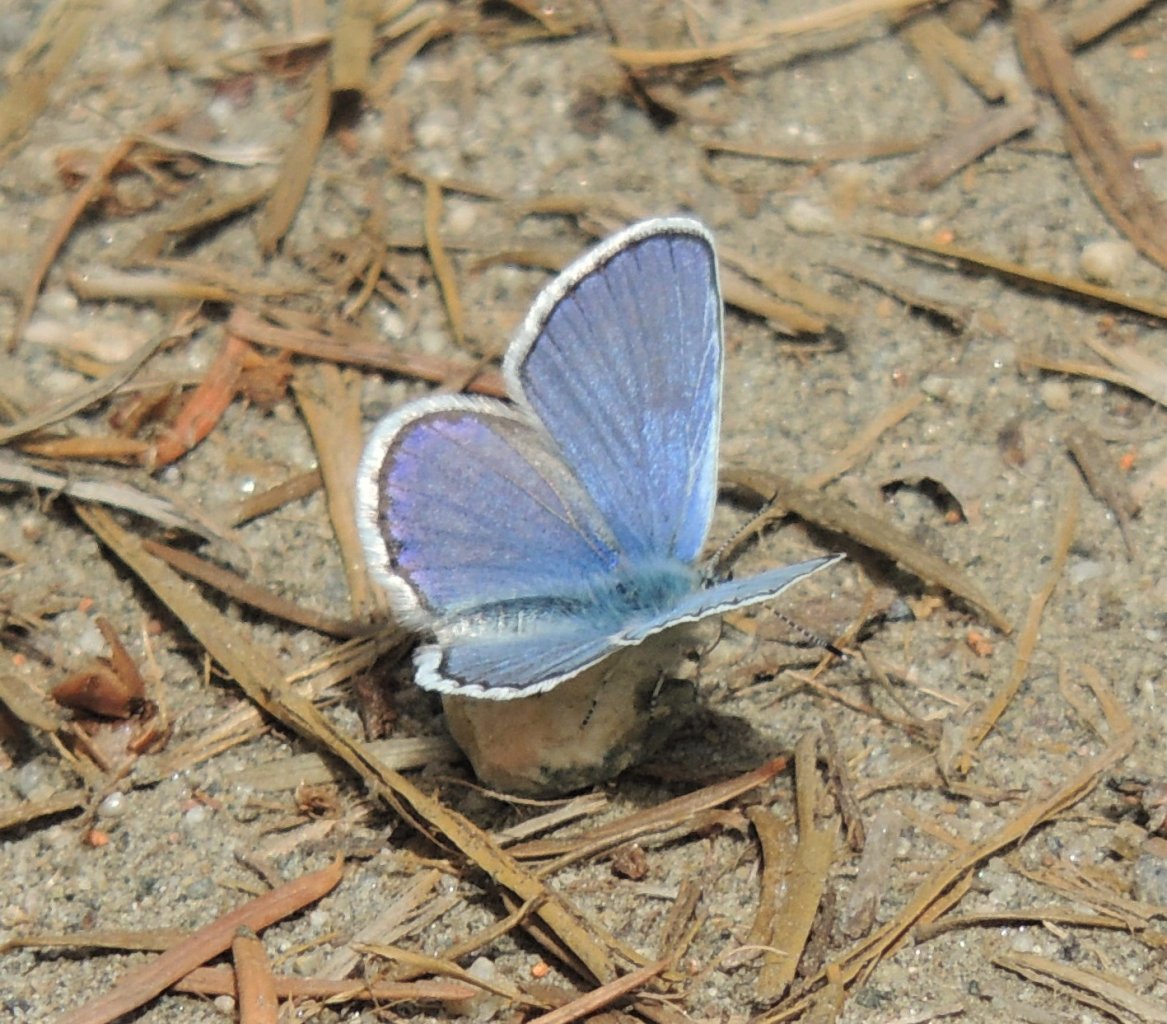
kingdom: Animalia
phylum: Arthropoda
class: Insecta
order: Lepidoptera
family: Lycaenidae
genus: Lycaeides
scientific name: Lycaeides melissa
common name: Melissa Blue
